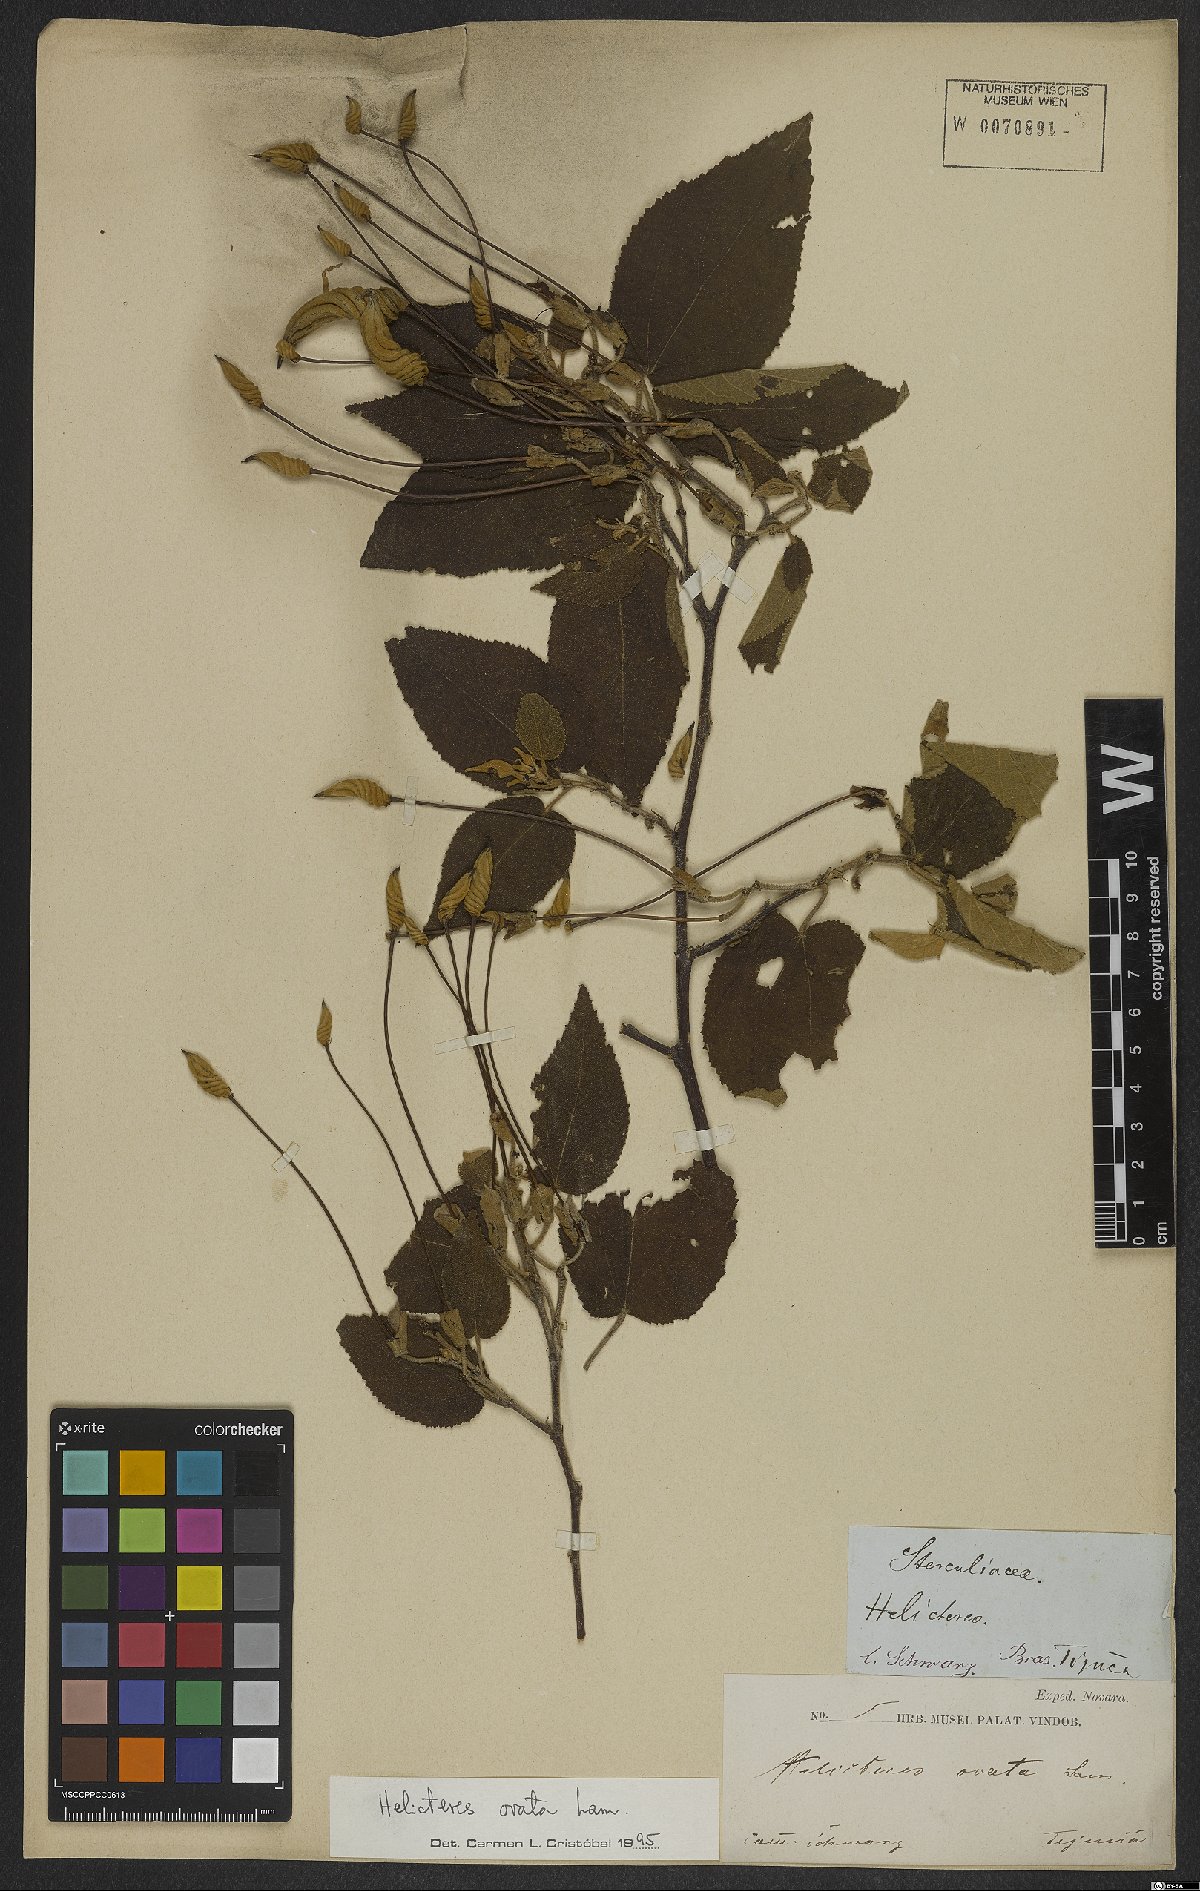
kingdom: Plantae
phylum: Tracheophyta
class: Magnoliopsida
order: Malvales
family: Malvaceae
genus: Helicteres
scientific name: Helicteres ovata
